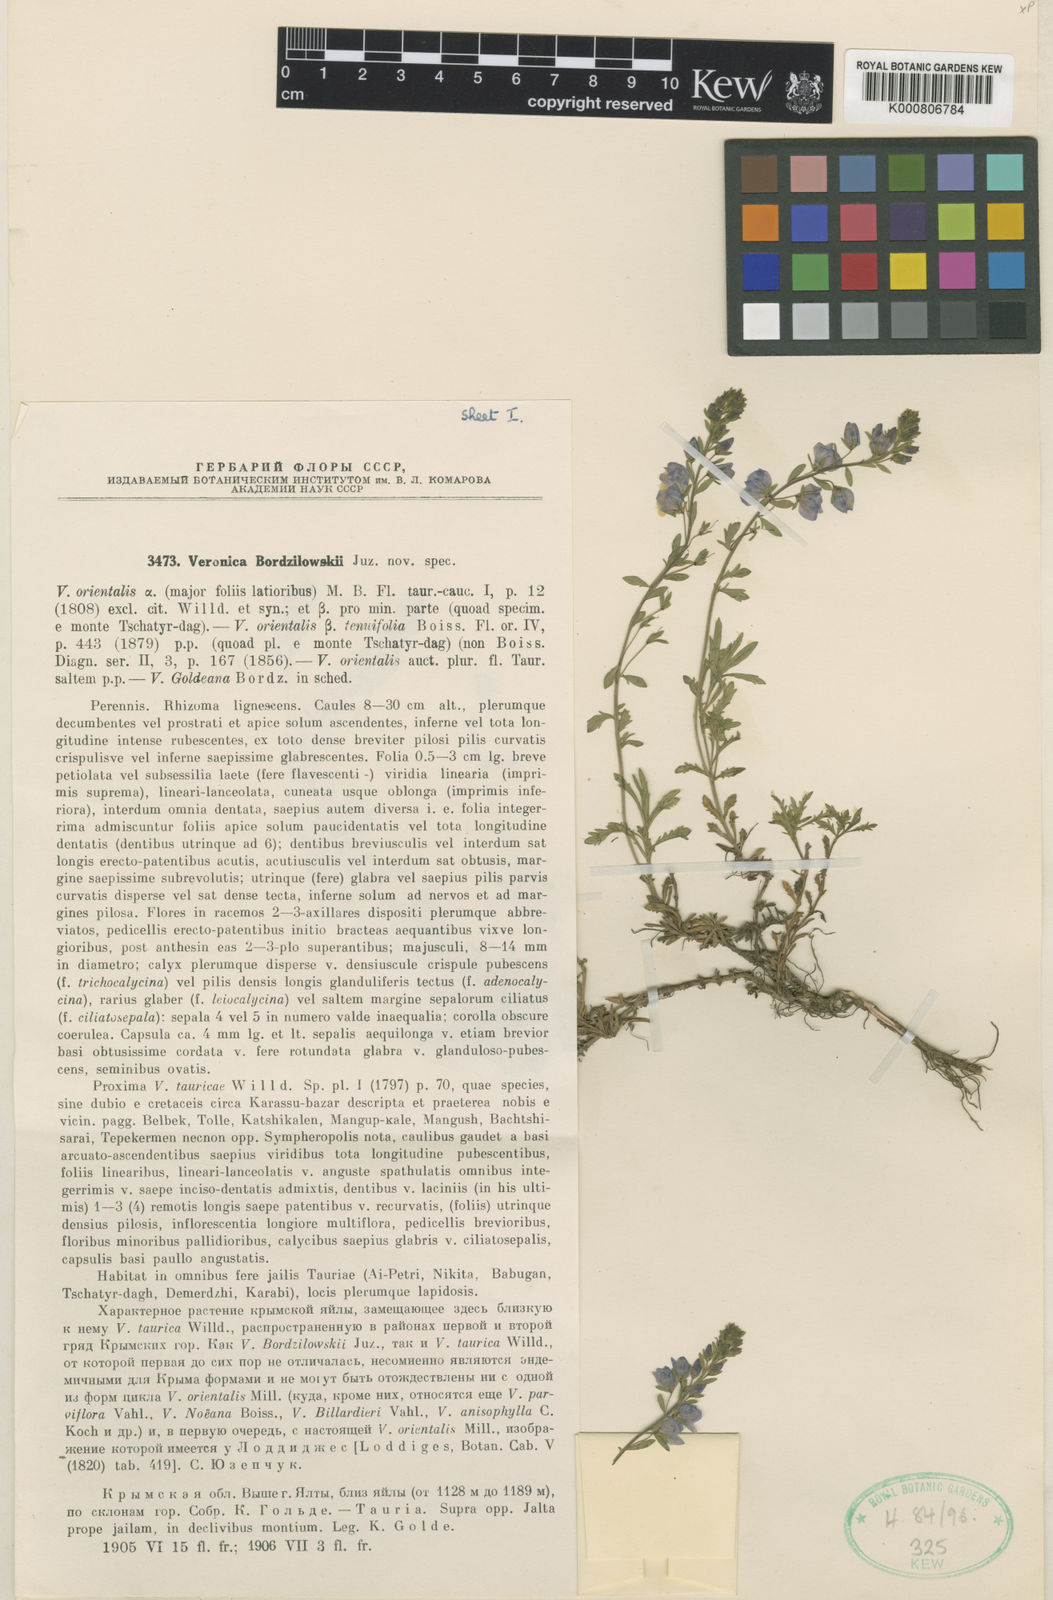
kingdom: Plantae
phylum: Tracheophyta
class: Magnoliopsida
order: Lamiales
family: Plantaginaceae
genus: Veronica
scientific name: Veronica orientalis
